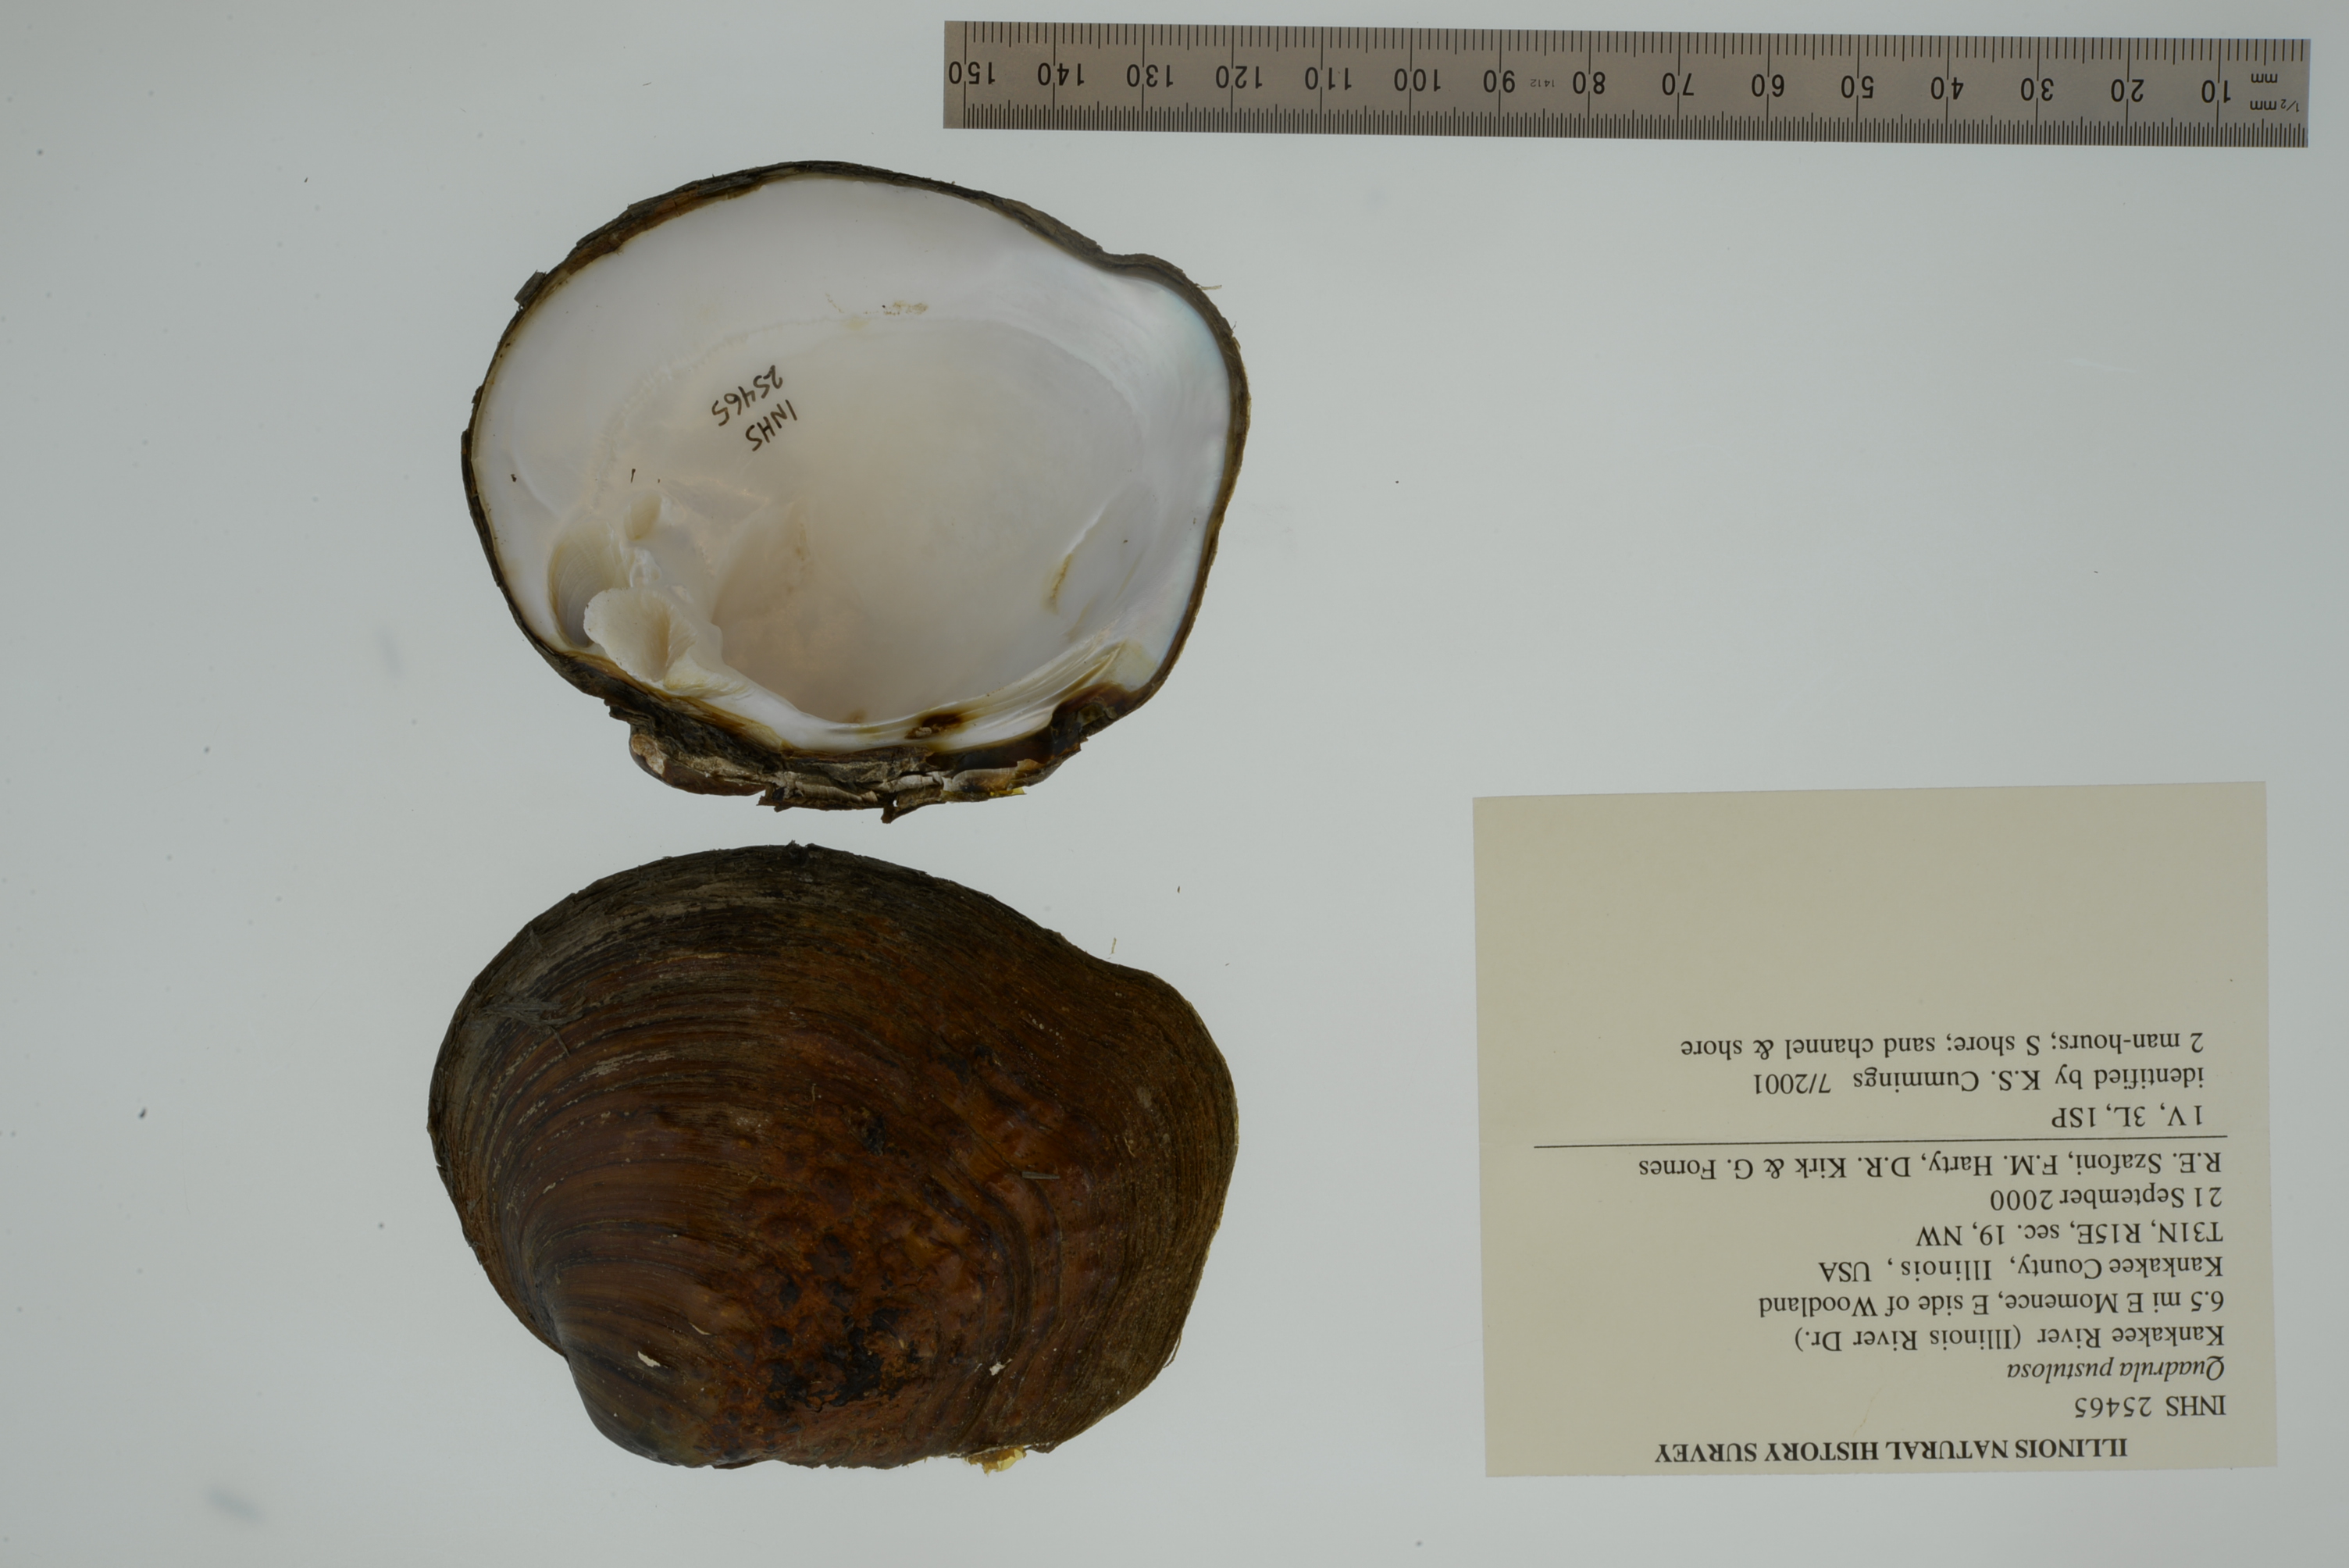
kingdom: Animalia
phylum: Mollusca
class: Bivalvia
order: Unionida
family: Unionidae
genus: Cyclonaias
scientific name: Cyclonaias pustulosa
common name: Pimpleback
